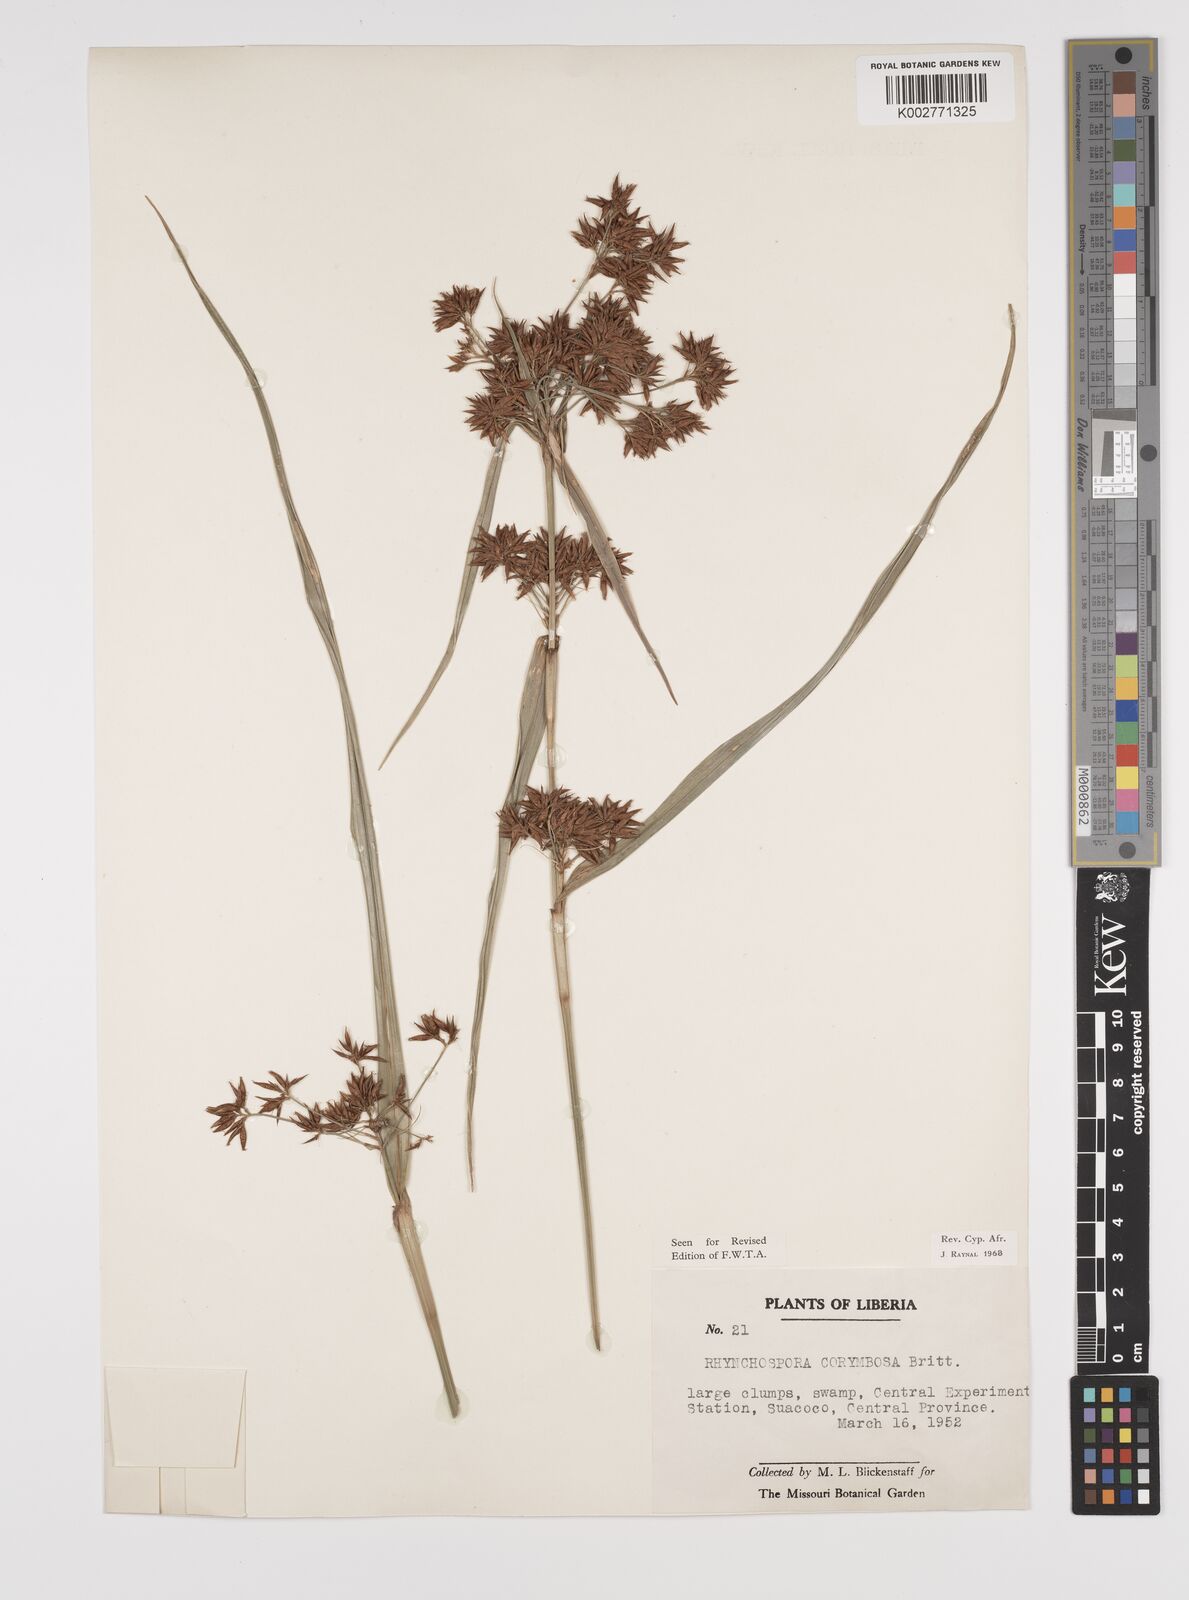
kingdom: Plantae
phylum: Tracheophyta
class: Liliopsida
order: Poales
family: Cyperaceae
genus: Rhynchospora
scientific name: Rhynchospora corymbosa
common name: Golden beak sedge
